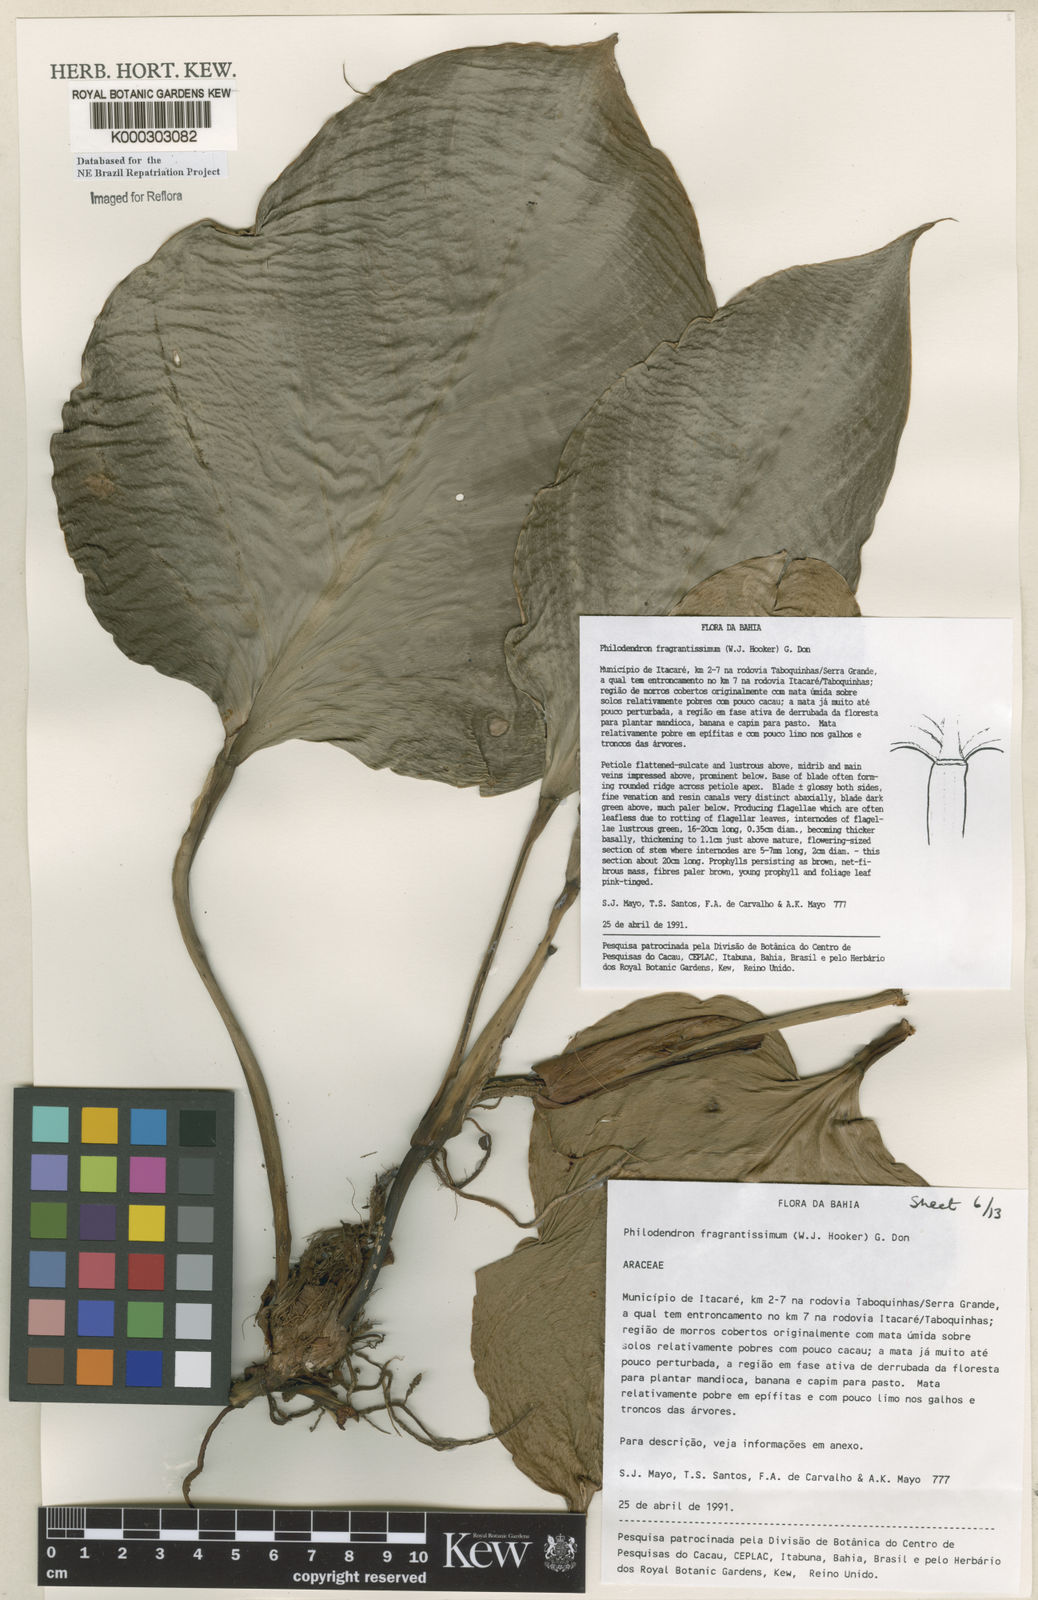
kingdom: Plantae
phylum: Tracheophyta
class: Liliopsida
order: Alismatales
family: Araceae
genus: Philodendron
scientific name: Philodendron fragrantissimum
